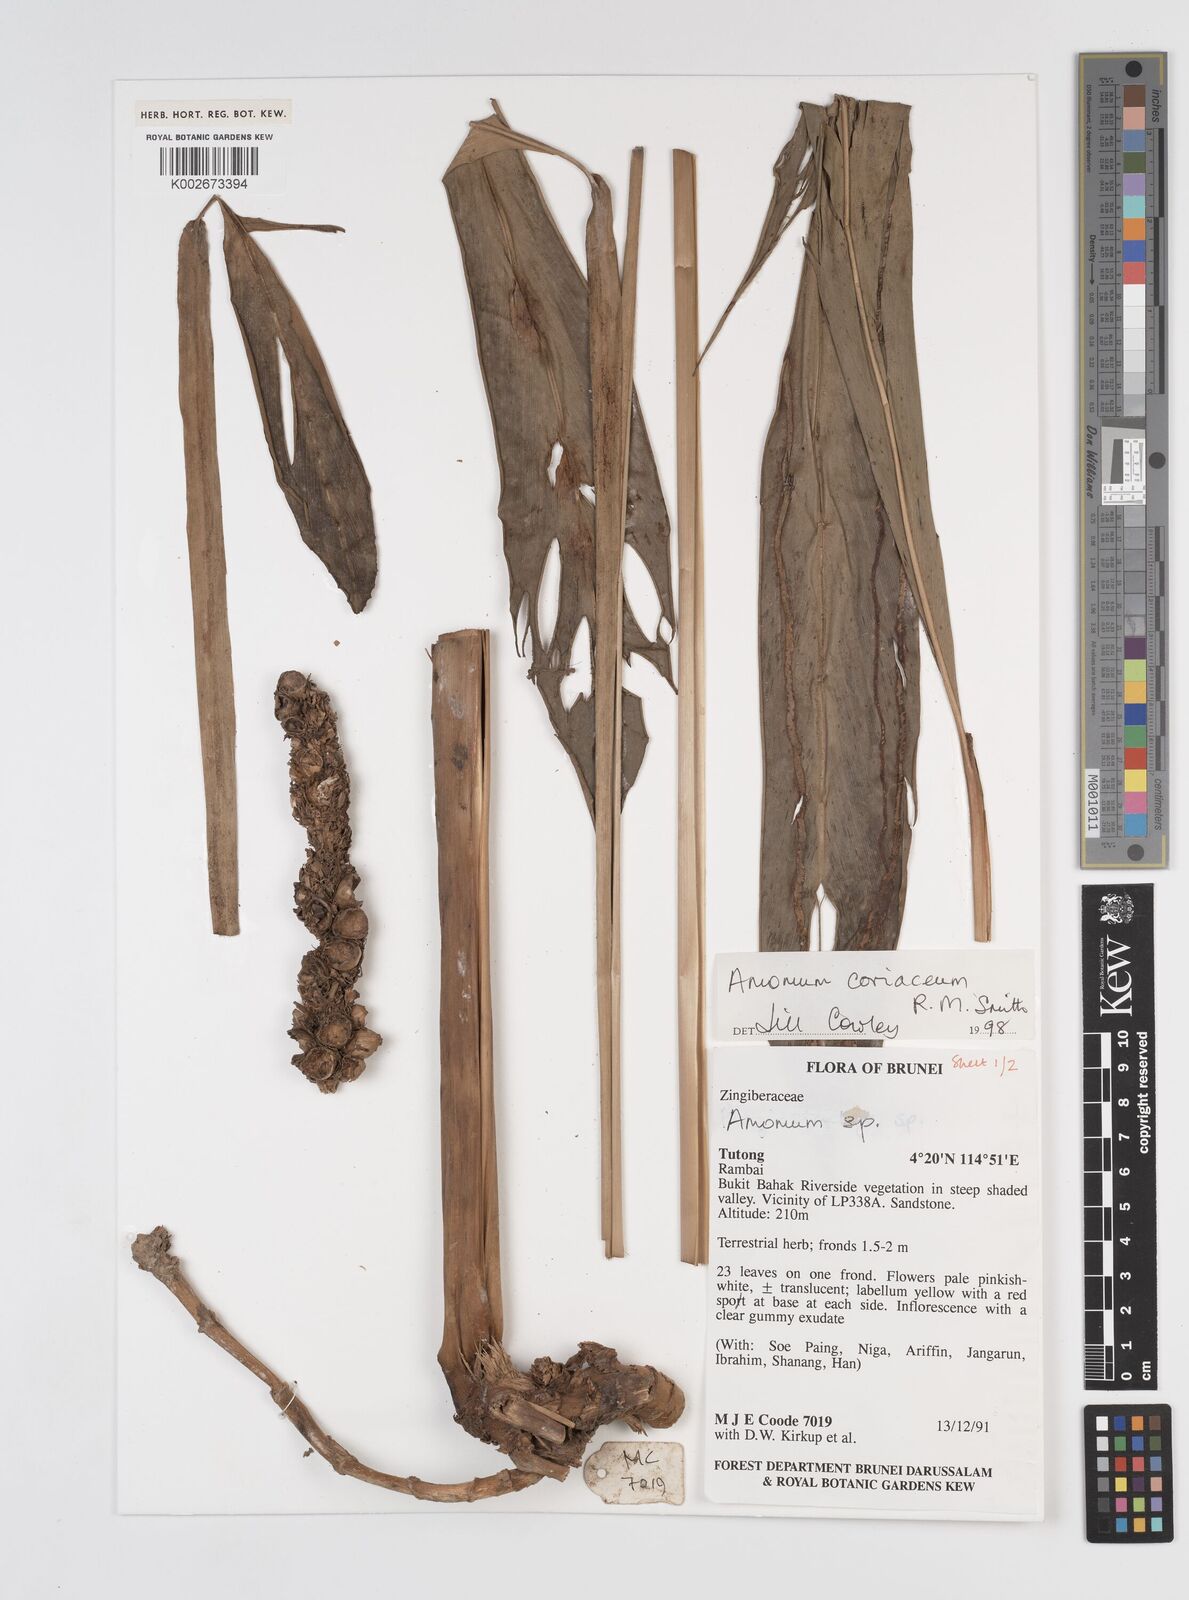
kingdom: Plantae
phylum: Tracheophyta
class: Liliopsida
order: Zingiberales
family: Zingiberaceae
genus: Conamomum
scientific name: Conamomum cylindrostachys
